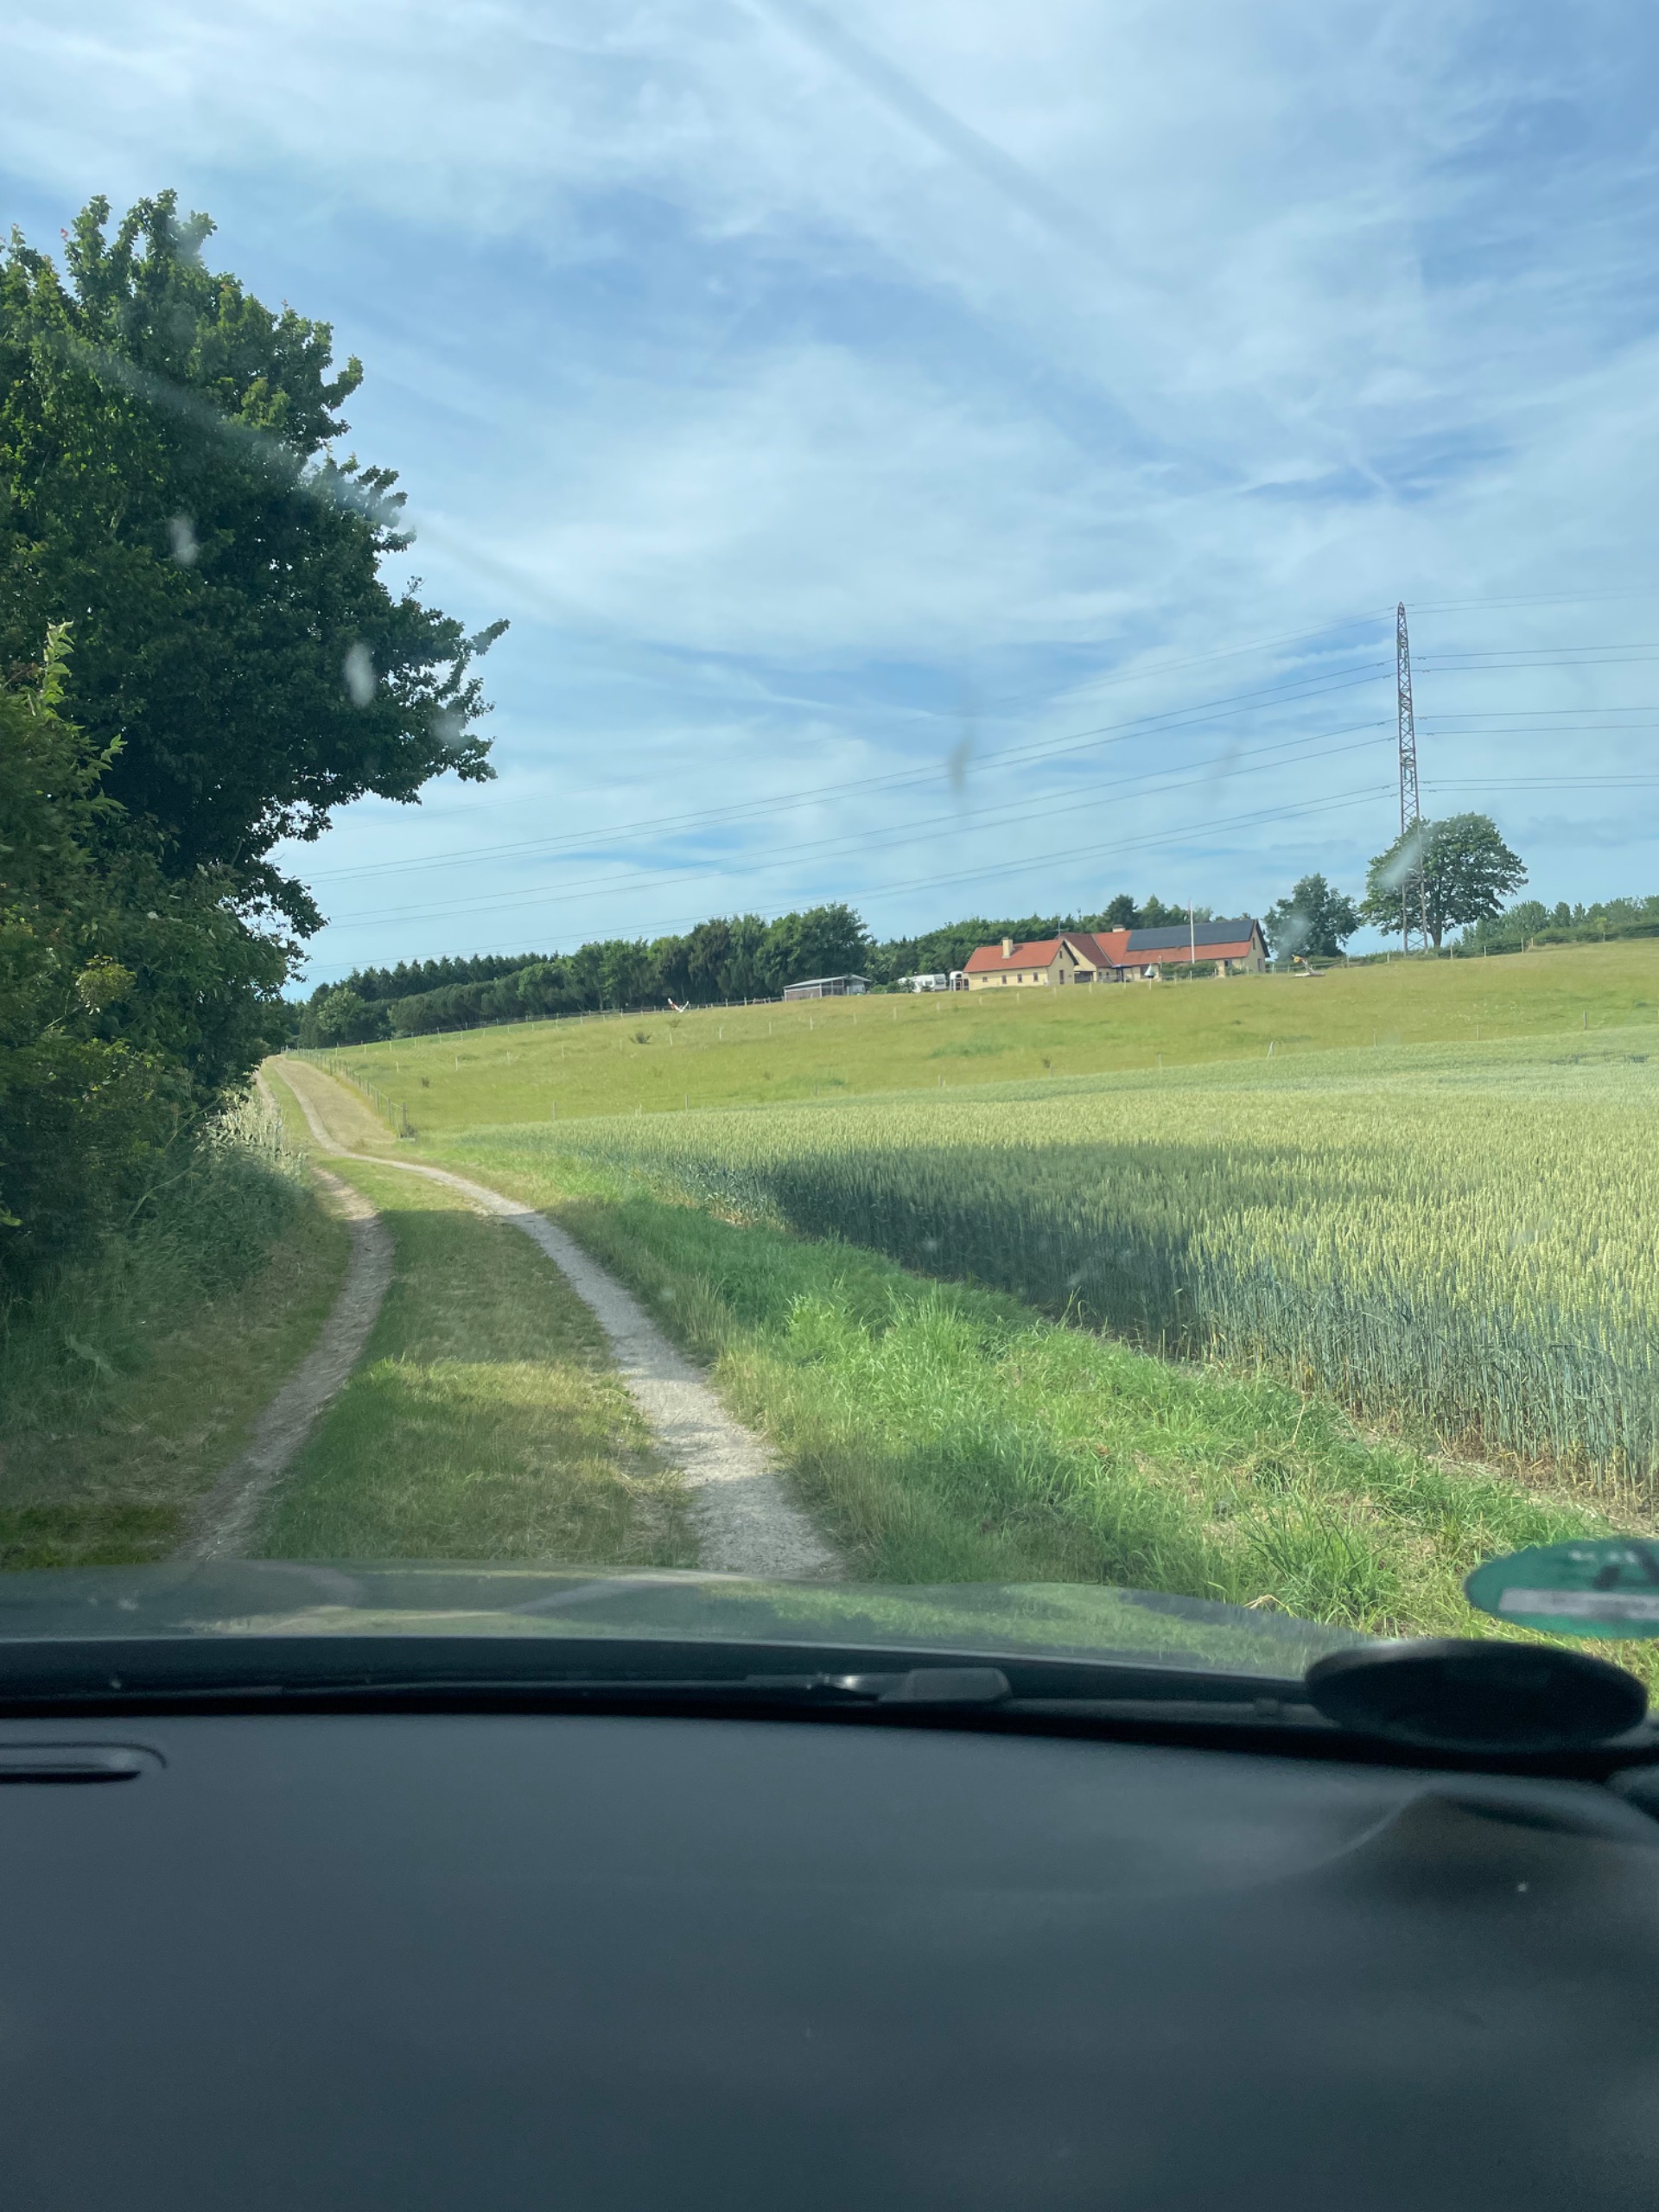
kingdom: Plantae
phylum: Tracheophyta
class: Magnoliopsida
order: Apiales
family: Apiaceae
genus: Heracleum
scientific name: Heracleum mantegazzianum
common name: Kæmpe-bjørneklo
